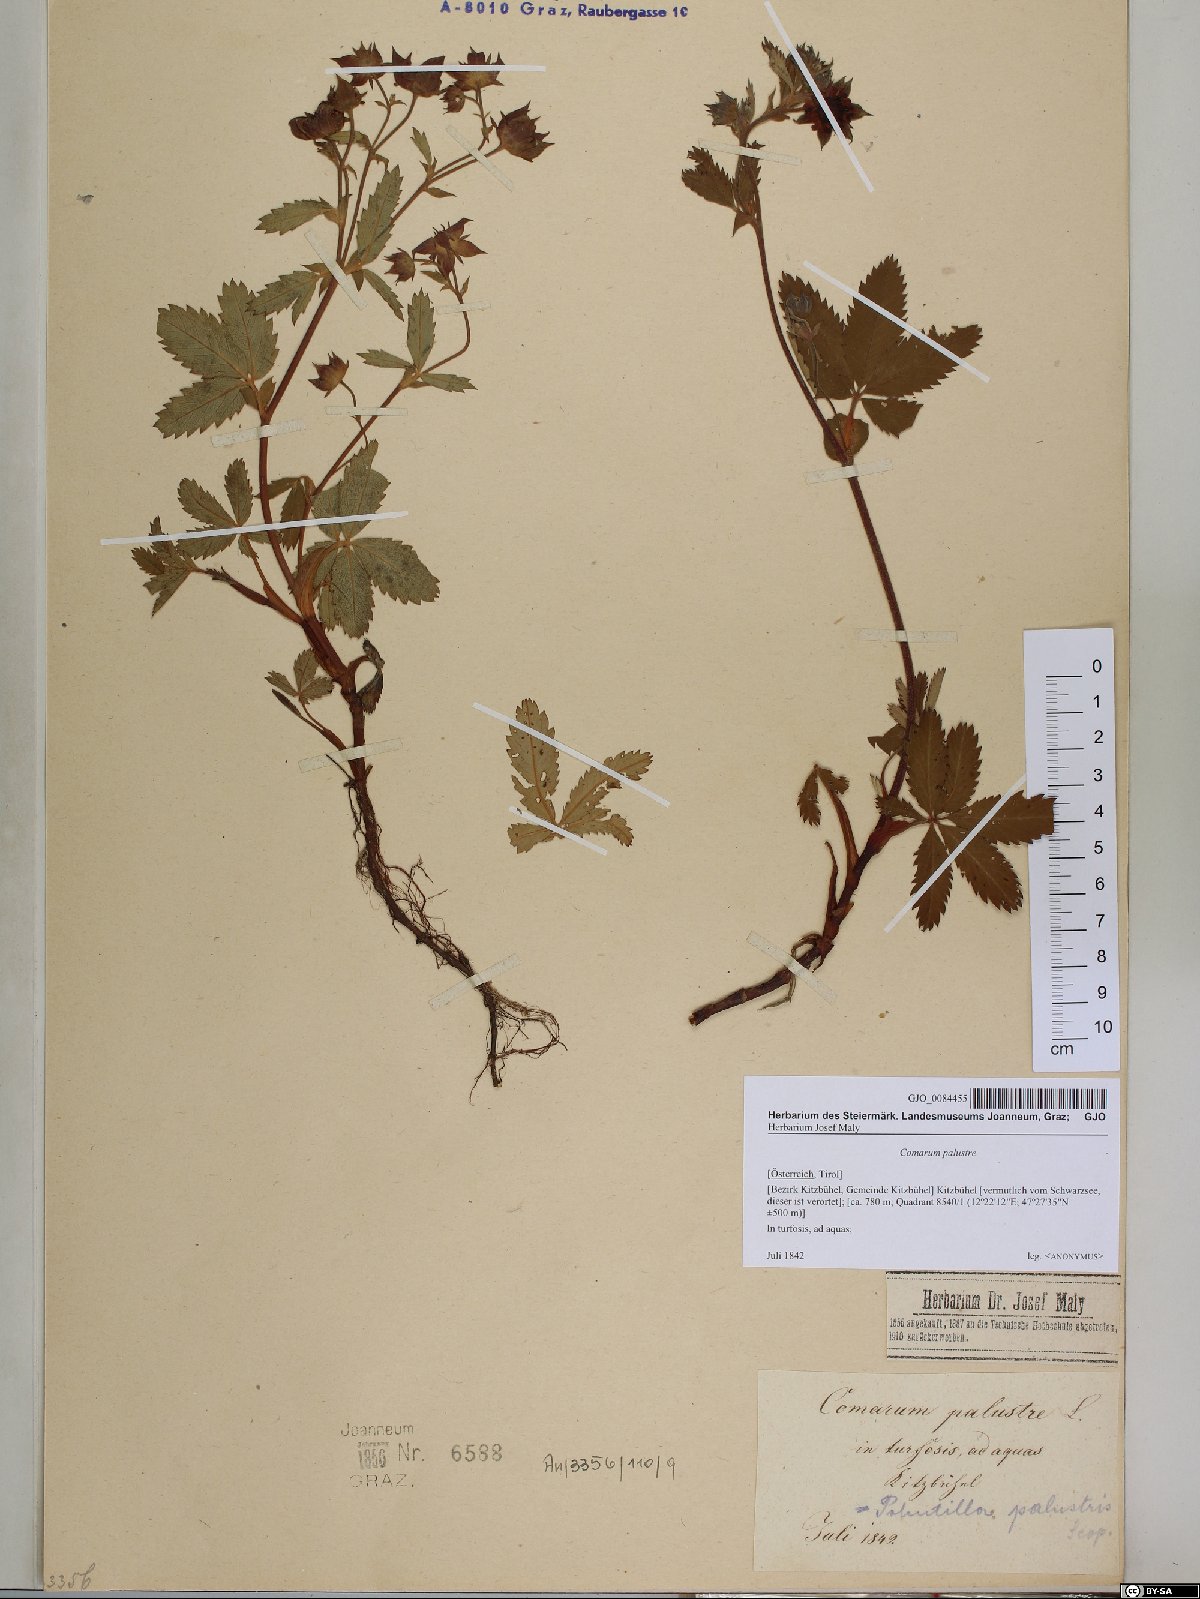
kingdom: Plantae
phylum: Tracheophyta
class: Magnoliopsida
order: Rosales
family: Rosaceae
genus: Comarum
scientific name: Comarum palustre
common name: Marsh cinquefoil
